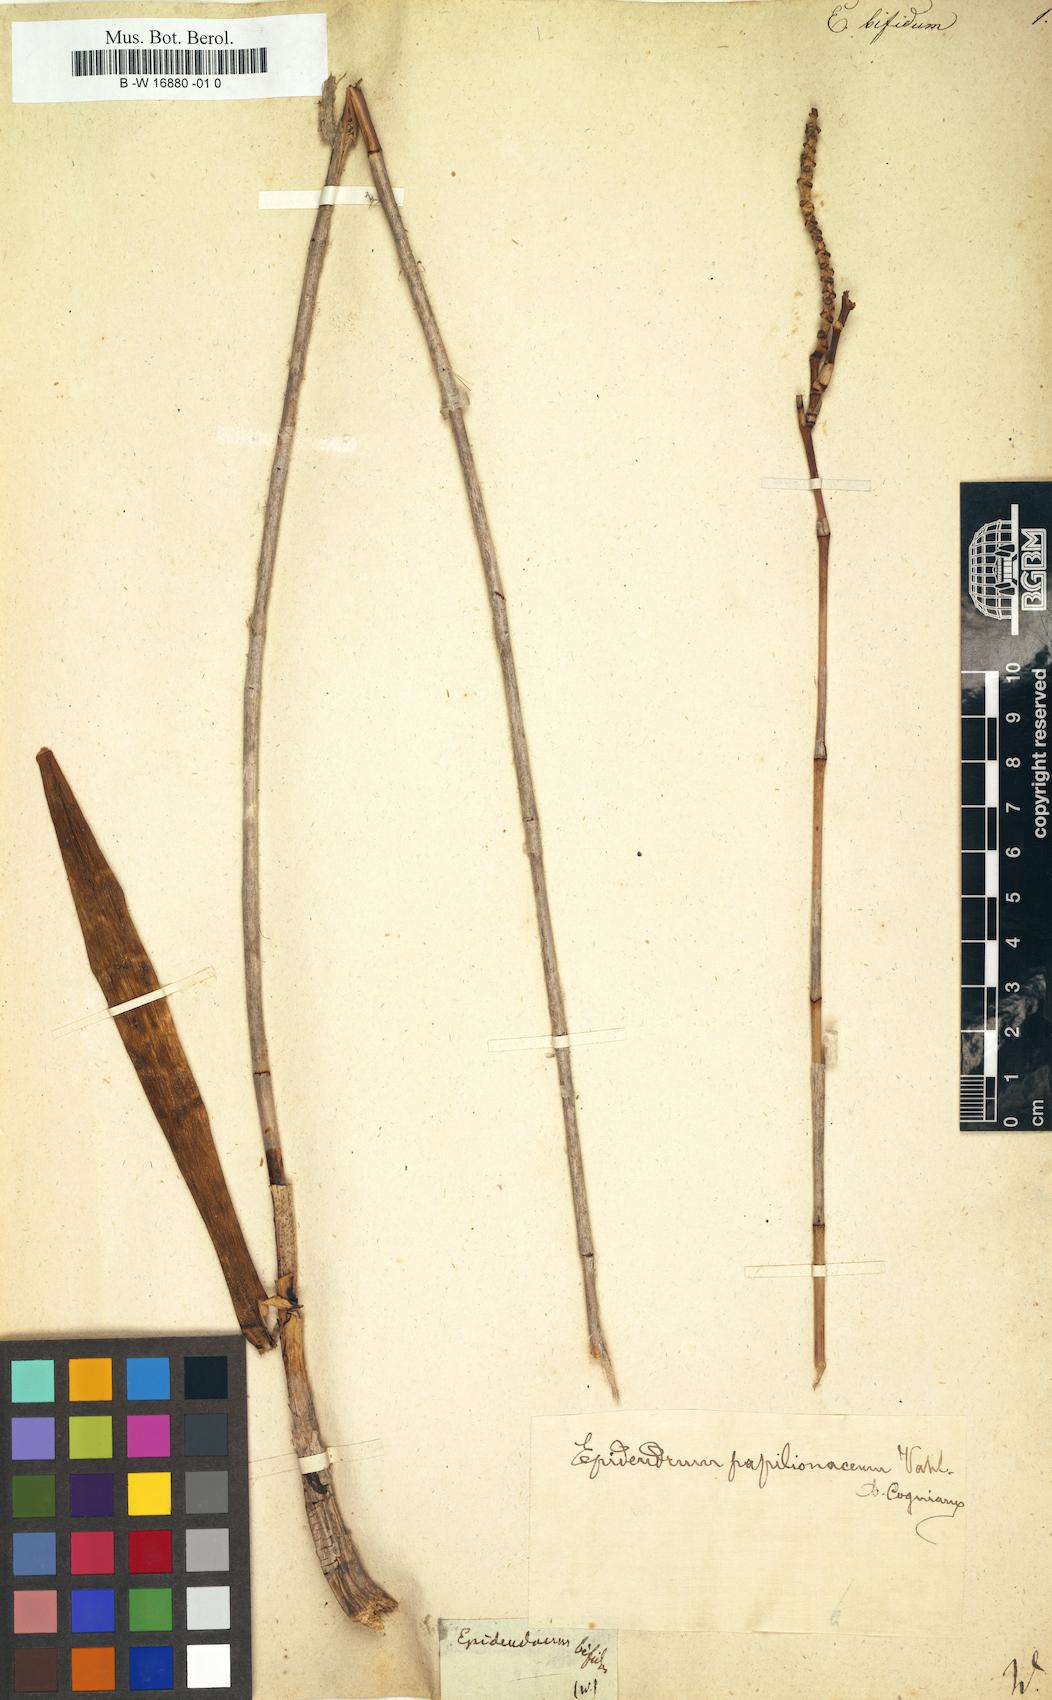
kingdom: Plantae
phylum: Tracheophyta
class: Liliopsida
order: Asparagales
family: Orchidaceae
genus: Psychilis
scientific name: Psychilis bifida
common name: Thicket butterfly orchid
